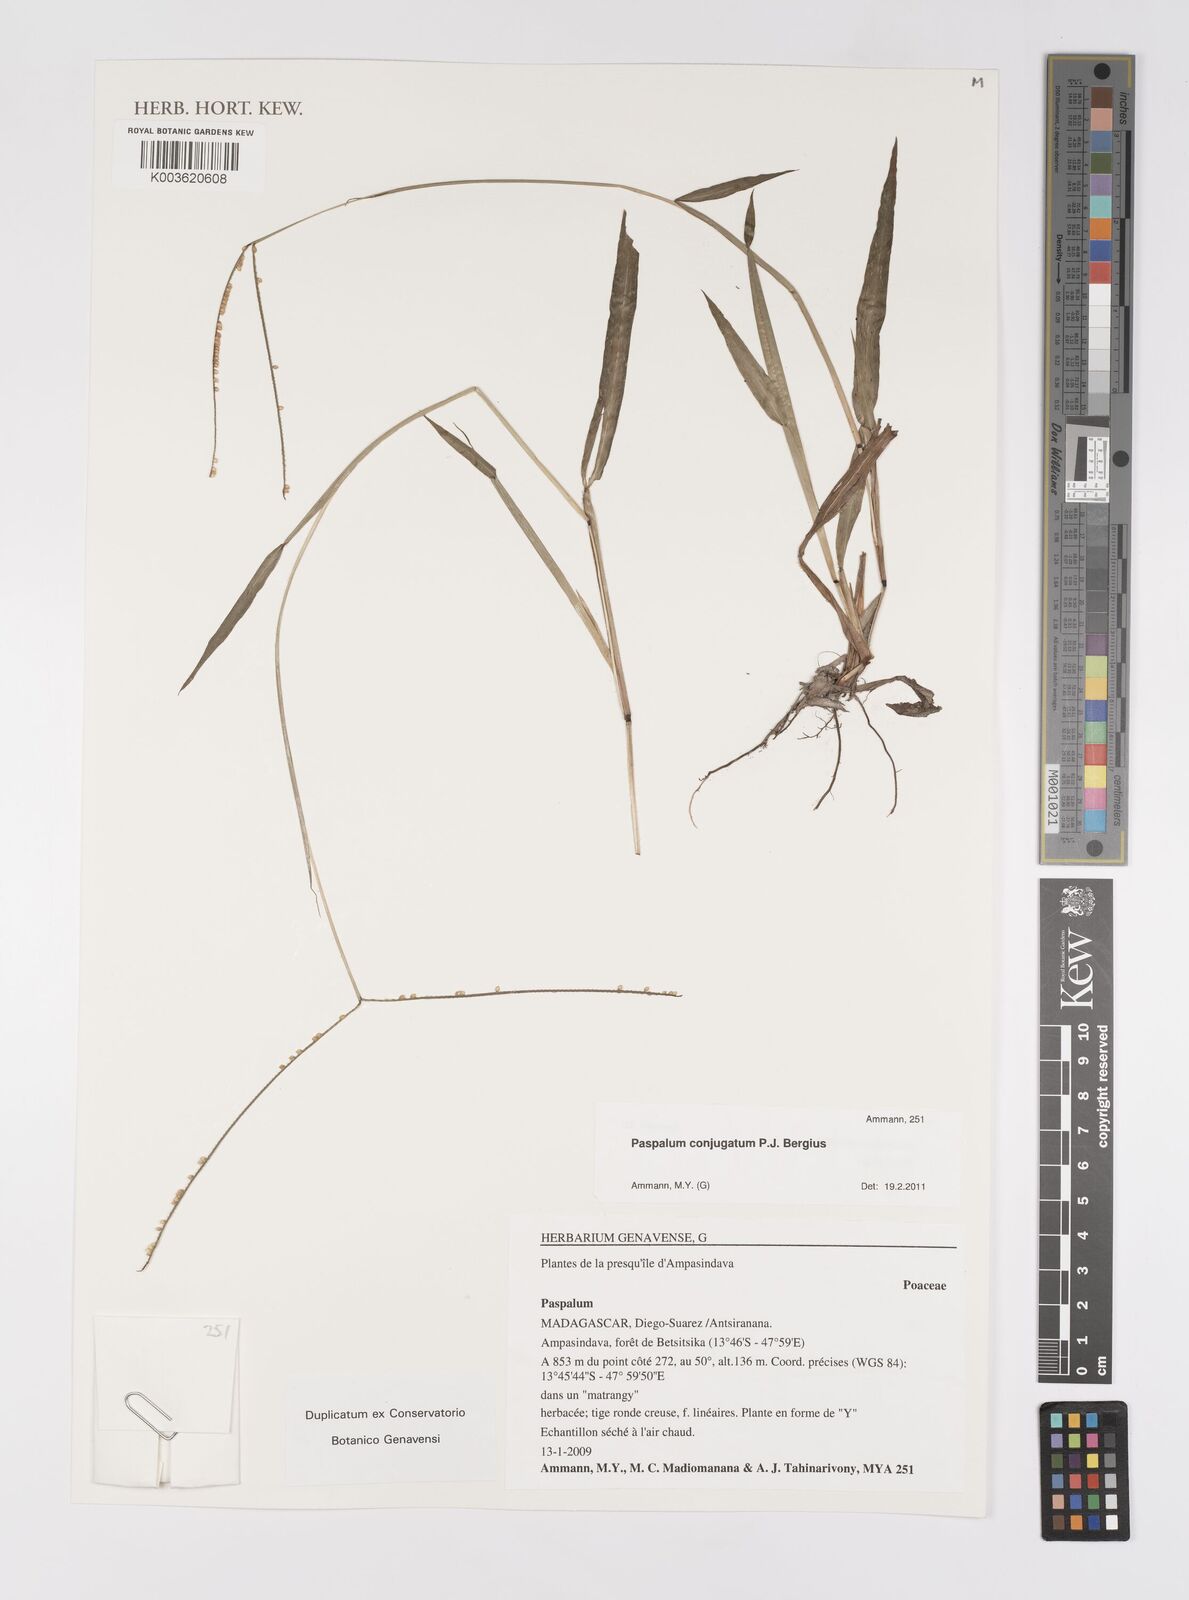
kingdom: Plantae
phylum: Tracheophyta
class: Liliopsida
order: Poales
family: Poaceae
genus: Paspalum
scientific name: Paspalum conjugatum
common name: Hilograss
